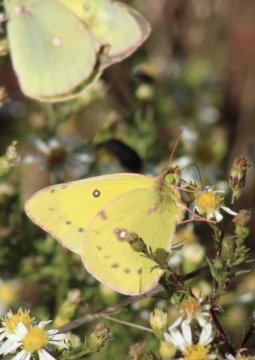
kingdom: Animalia
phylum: Arthropoda
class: Insecta
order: Lepidoptera
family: Pieridae
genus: Colias
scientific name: Colias eurytheme
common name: Orange Sulphur
